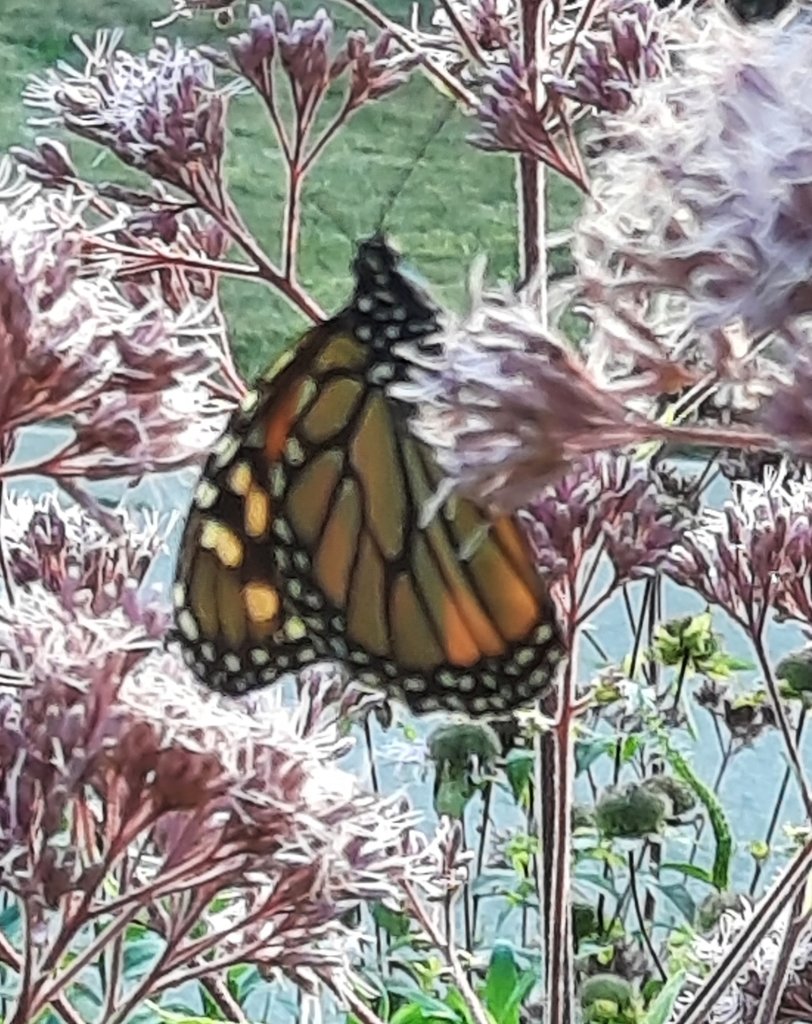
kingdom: Animalia
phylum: Arthropoda
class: Insecta
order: Lepidoptera
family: Nymphalidae
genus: Danaus
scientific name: Danaus plexippus
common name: Monarch
